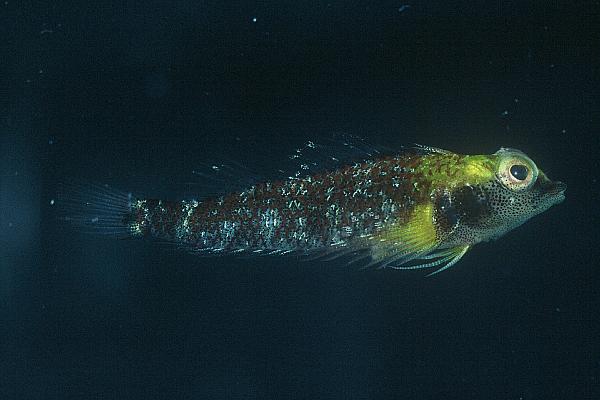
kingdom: Animalia
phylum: Chordata
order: Perciformes
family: Tripterygiidae
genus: Enneapterygius
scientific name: Enneapterygius flavoccipitis
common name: Northern bicoloured triplefin
